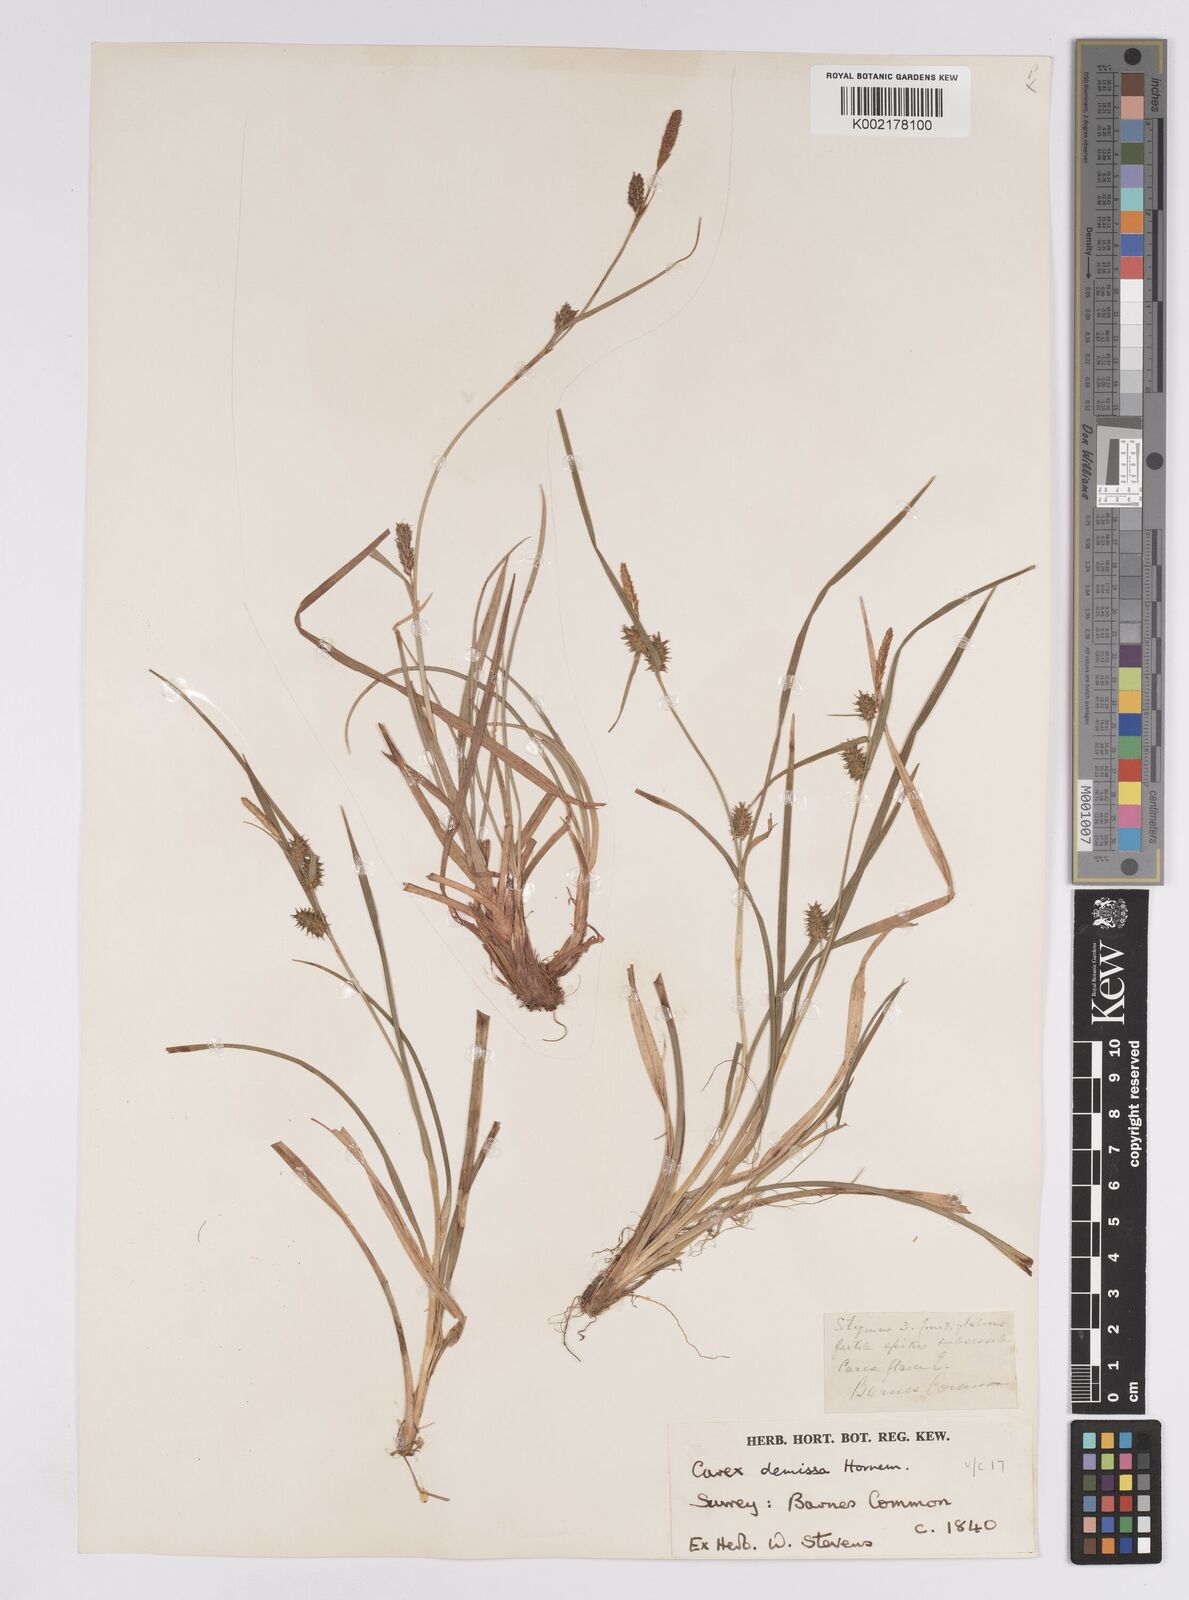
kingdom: Plantae
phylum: Tracheophyta
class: Liliopsida
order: Poales
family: Cyperaceae
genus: Carex
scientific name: Carex demissa
